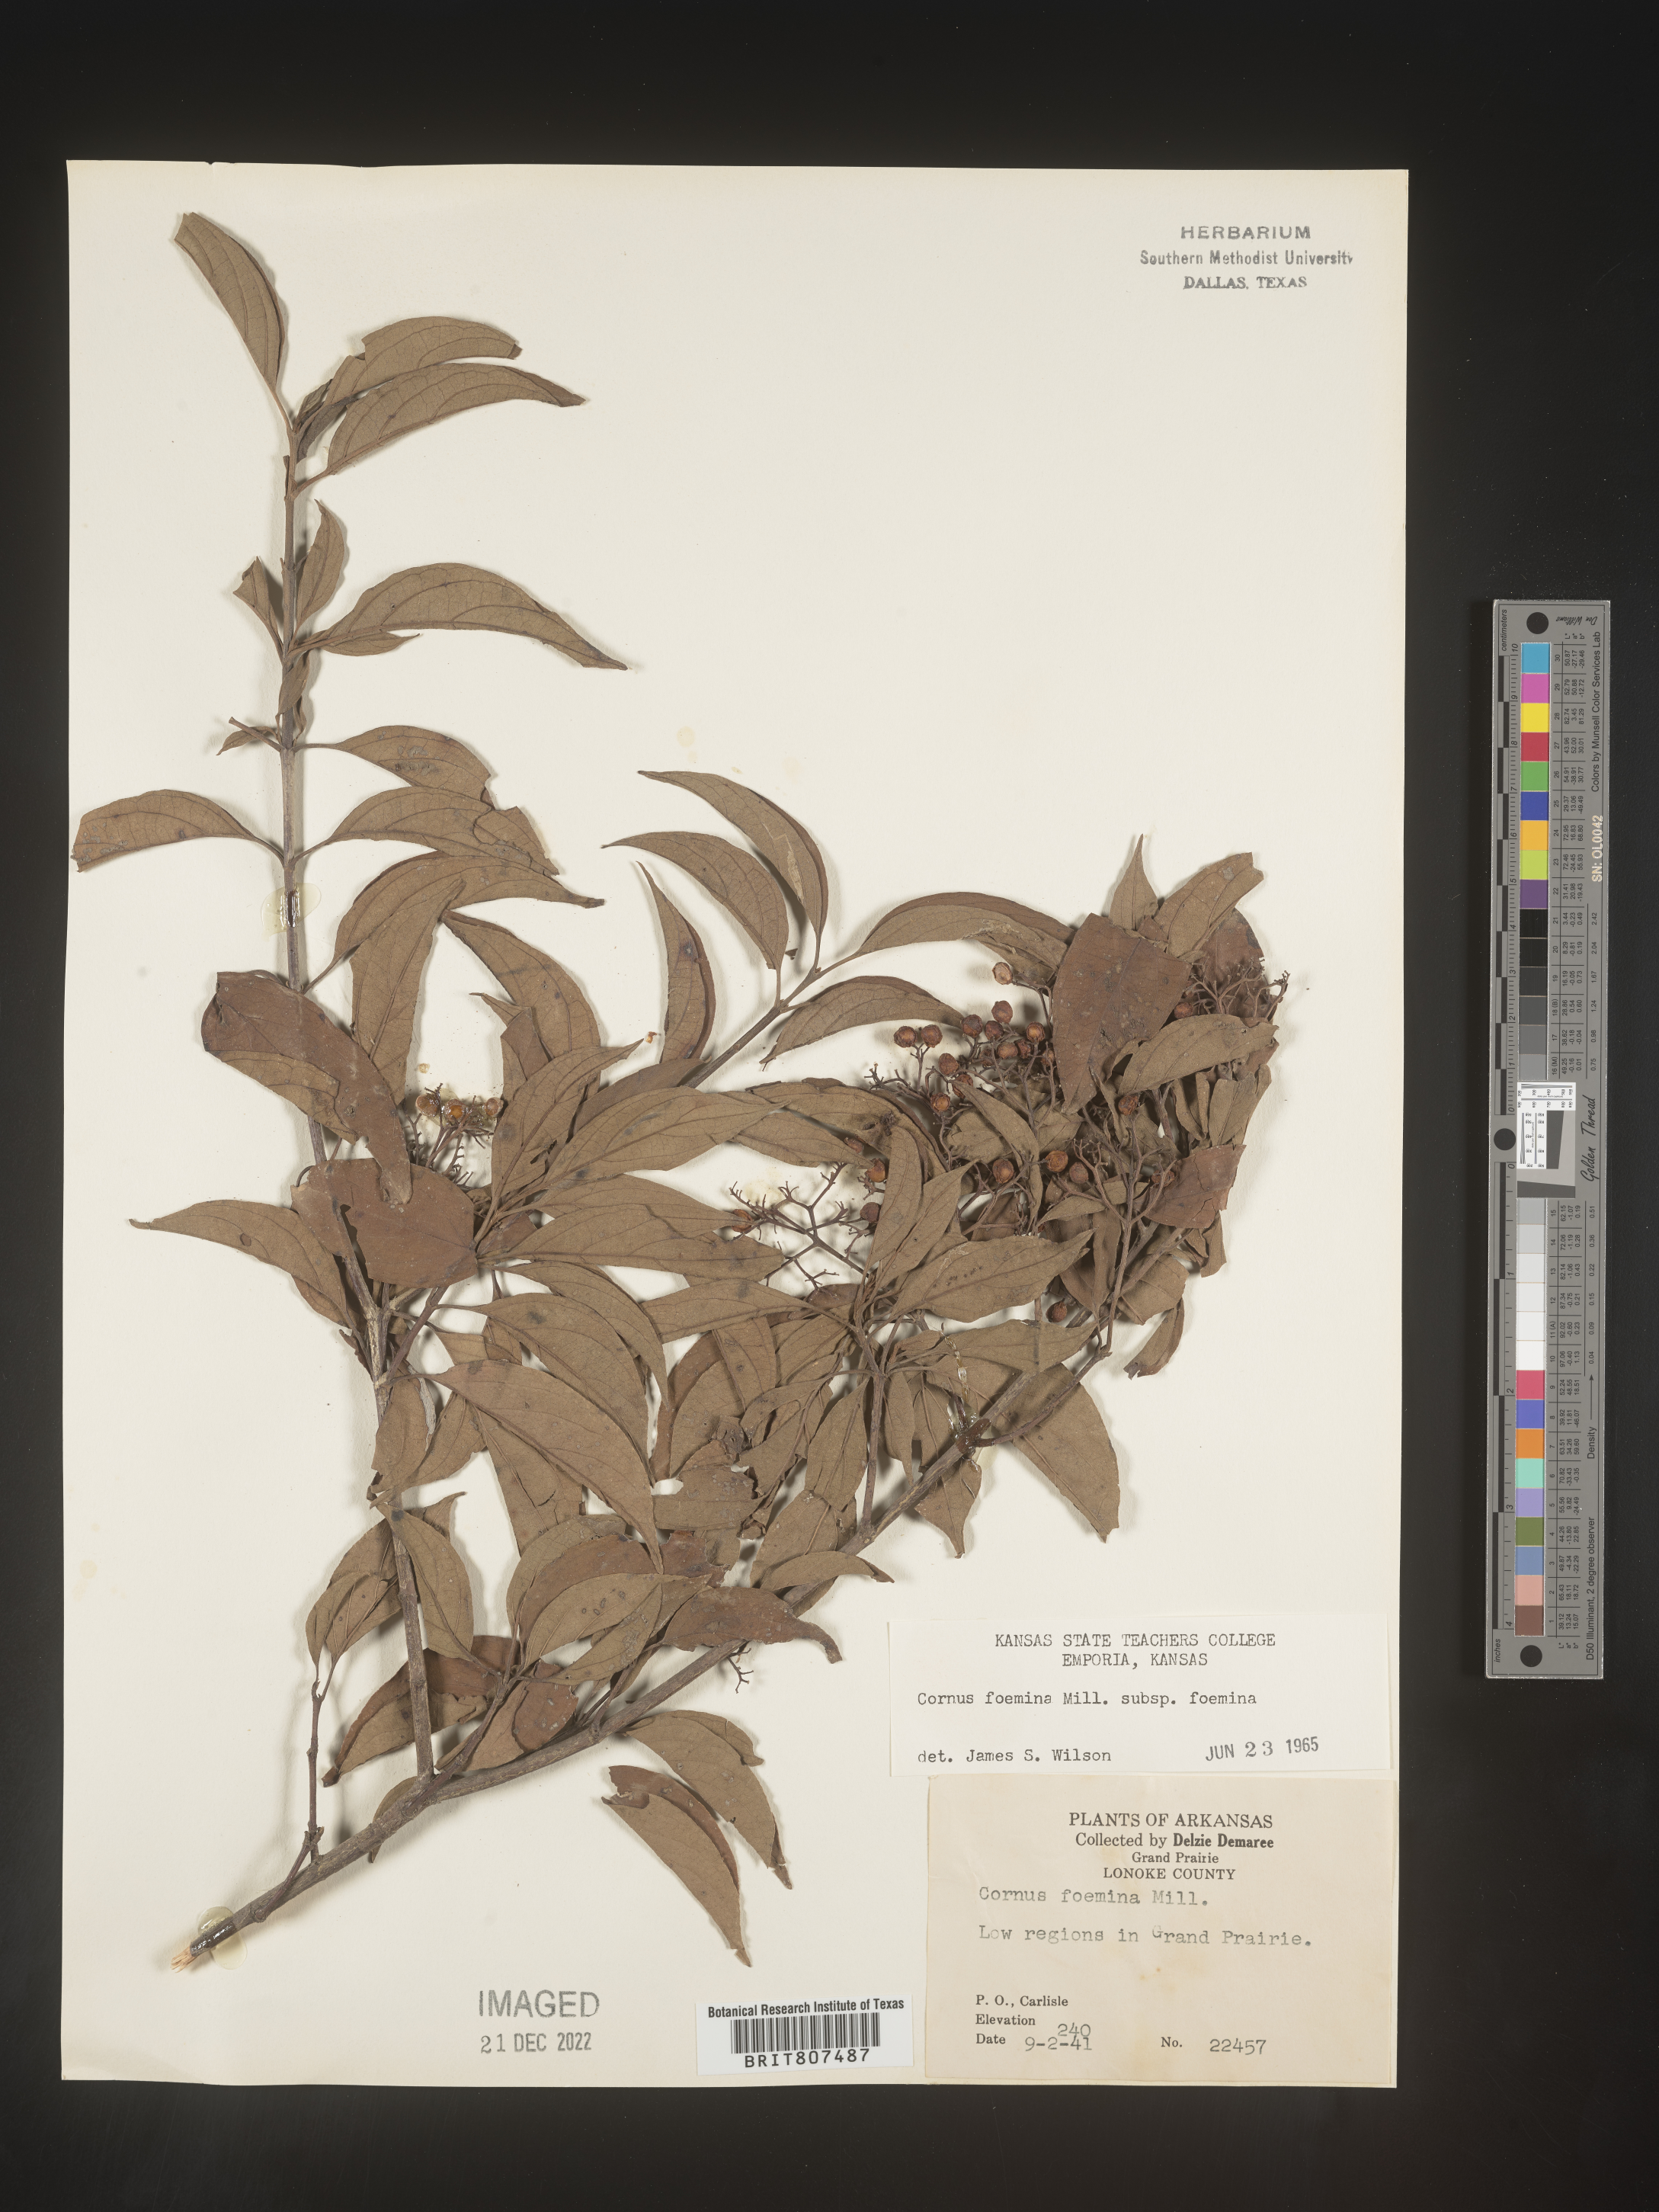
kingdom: Plantae
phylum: Tracheophyta
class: Magnoliopsida
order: Cornales
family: Cornaceae
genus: Cornus
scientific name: Cornus foemina
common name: Swamp dogwood
